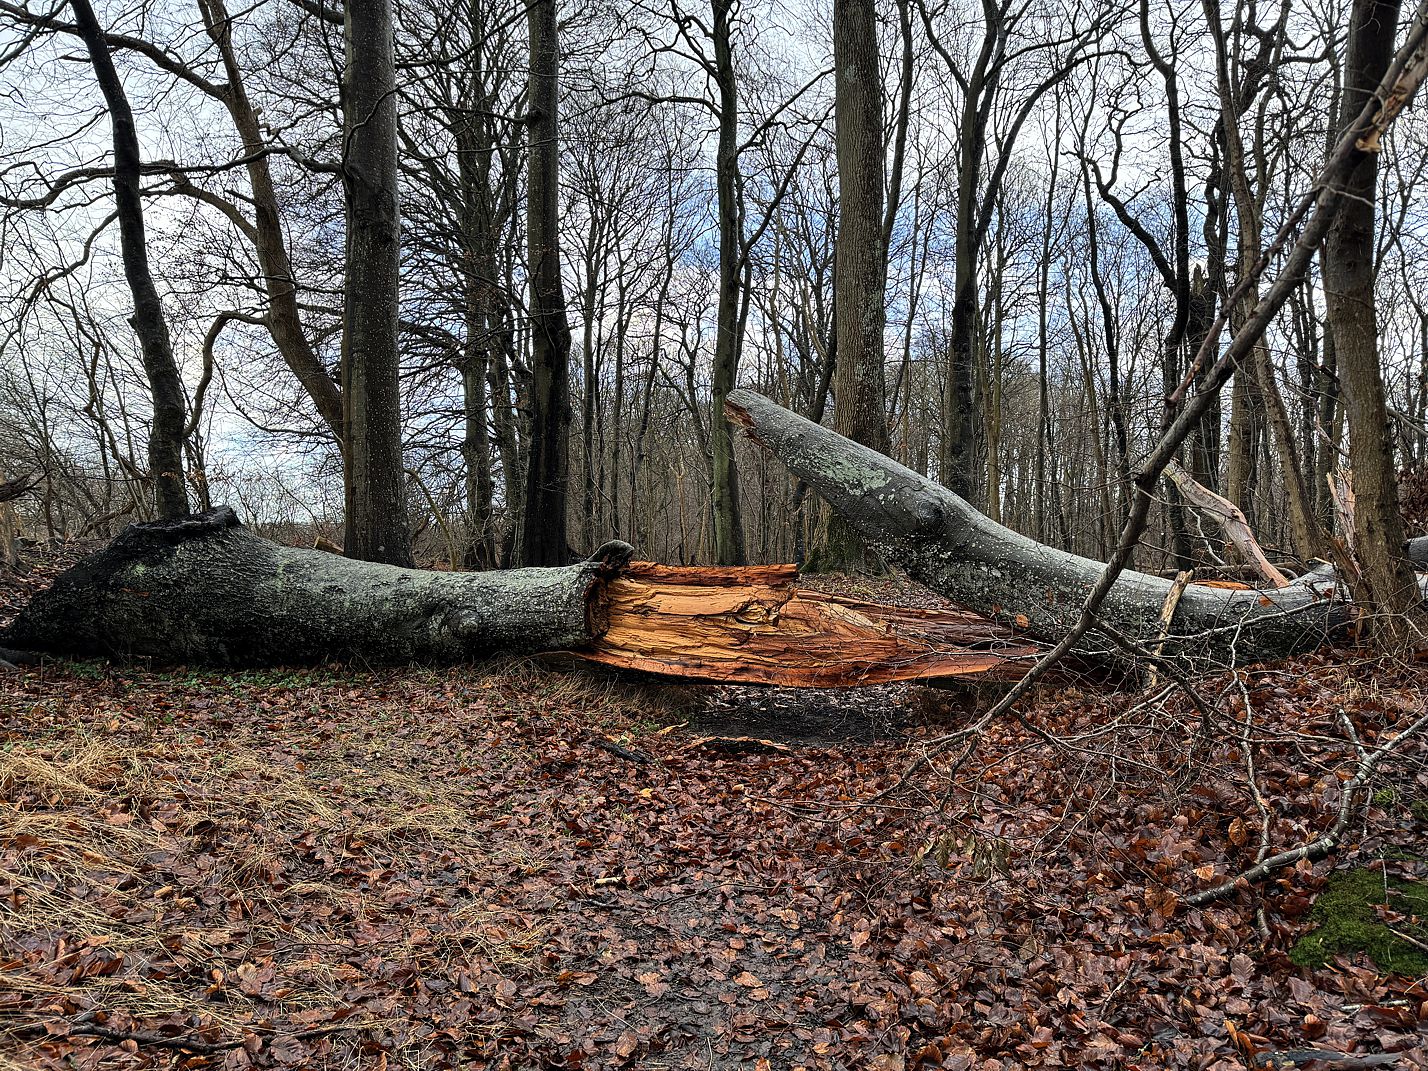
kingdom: Fungi
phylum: Ascomycota
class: Arthoniomycetes
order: Arthoniales
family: Roccellaceae
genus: Dendrographa
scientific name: Dendrographa decolorans
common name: forskelligfarvet skurvelav
